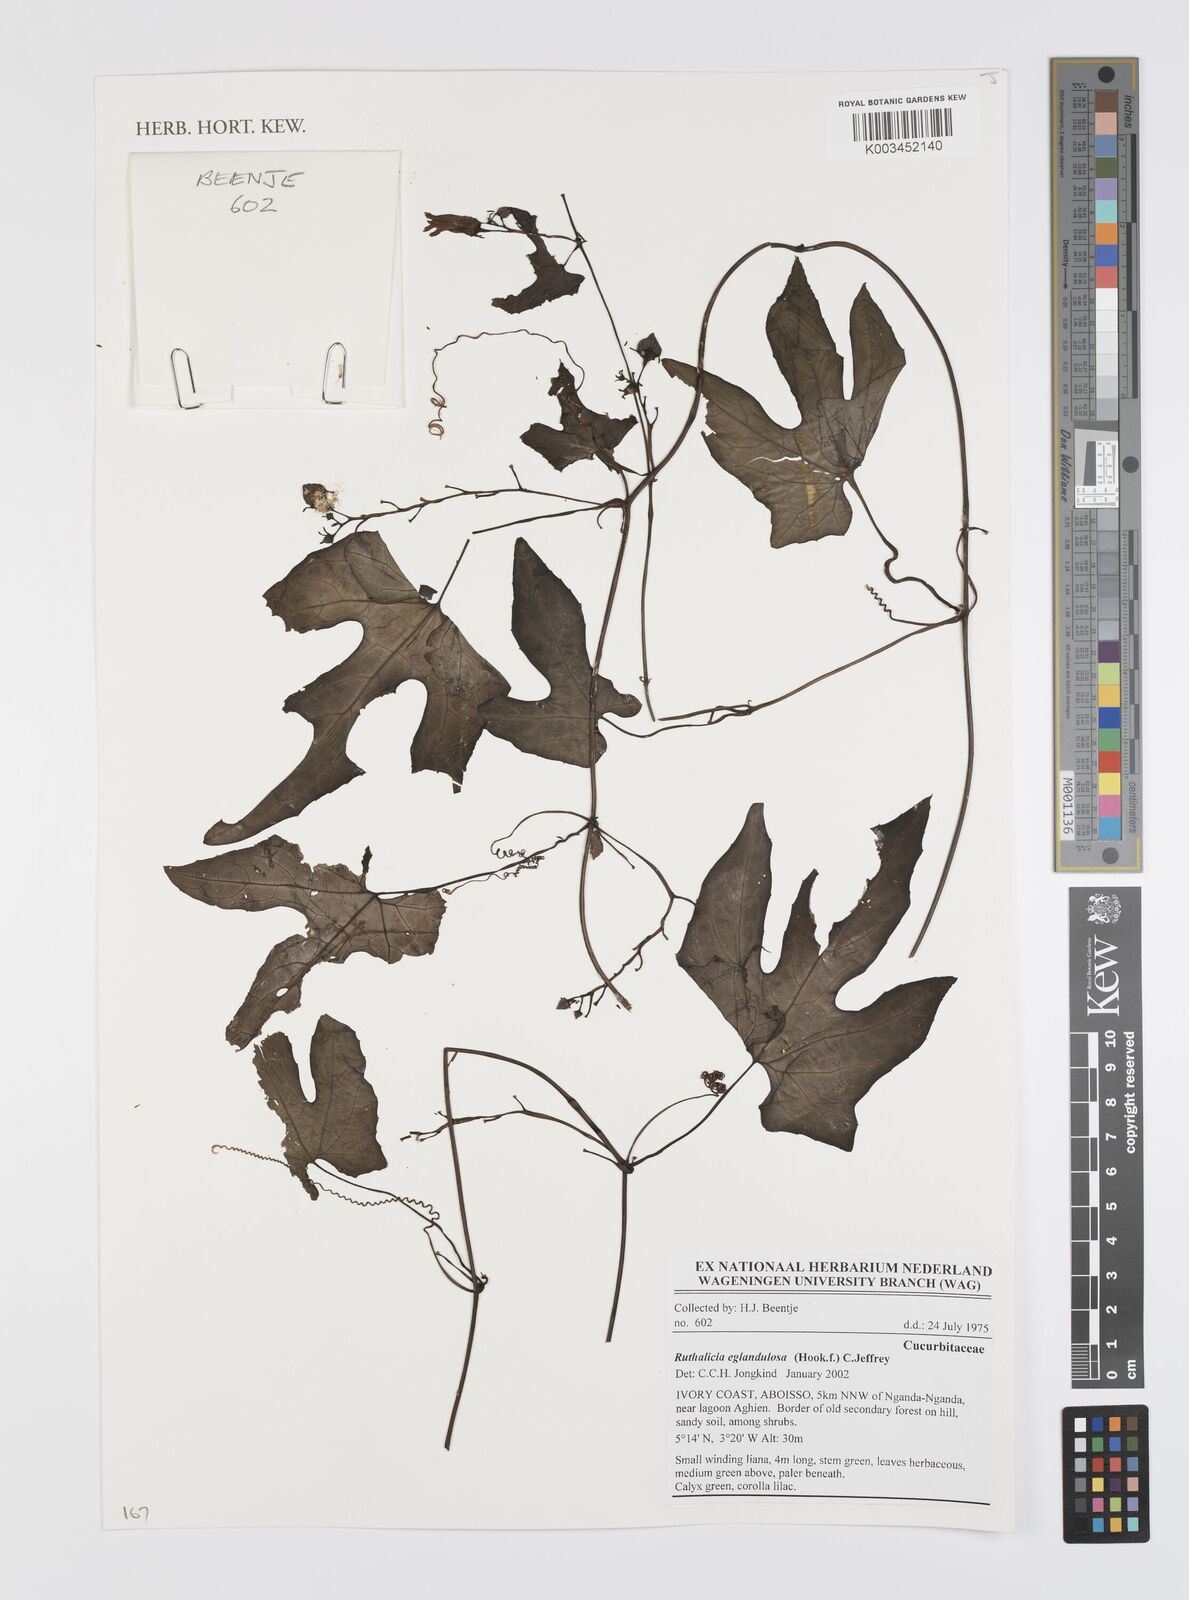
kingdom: Plantae
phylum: Tracheophyta
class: Magnoliopsida
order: Cucurbitales
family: Cucurbitaceae
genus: Ruthalicia
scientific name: Ruthalicia eglandulosa
